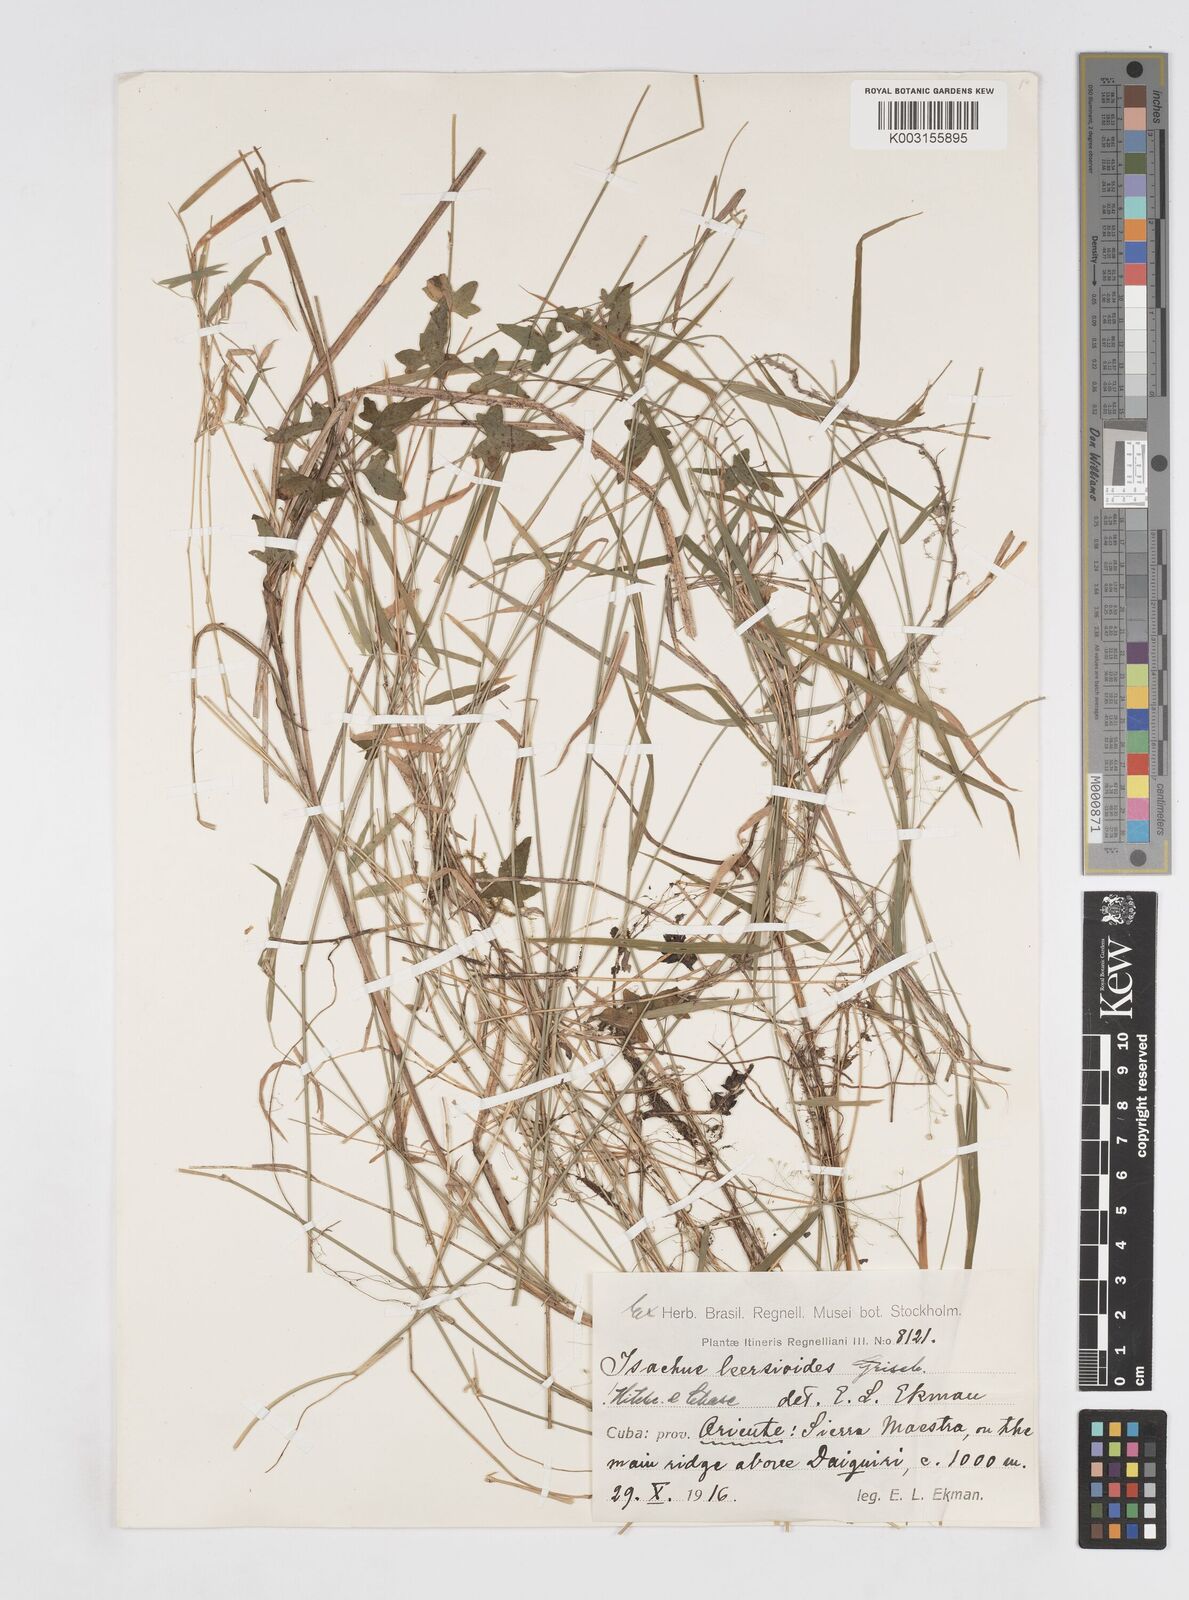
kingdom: Plantae
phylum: Tracheophyta
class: Liliopsida
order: Poales
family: Poaceae
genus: Isachne
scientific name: Isachne leersioides
